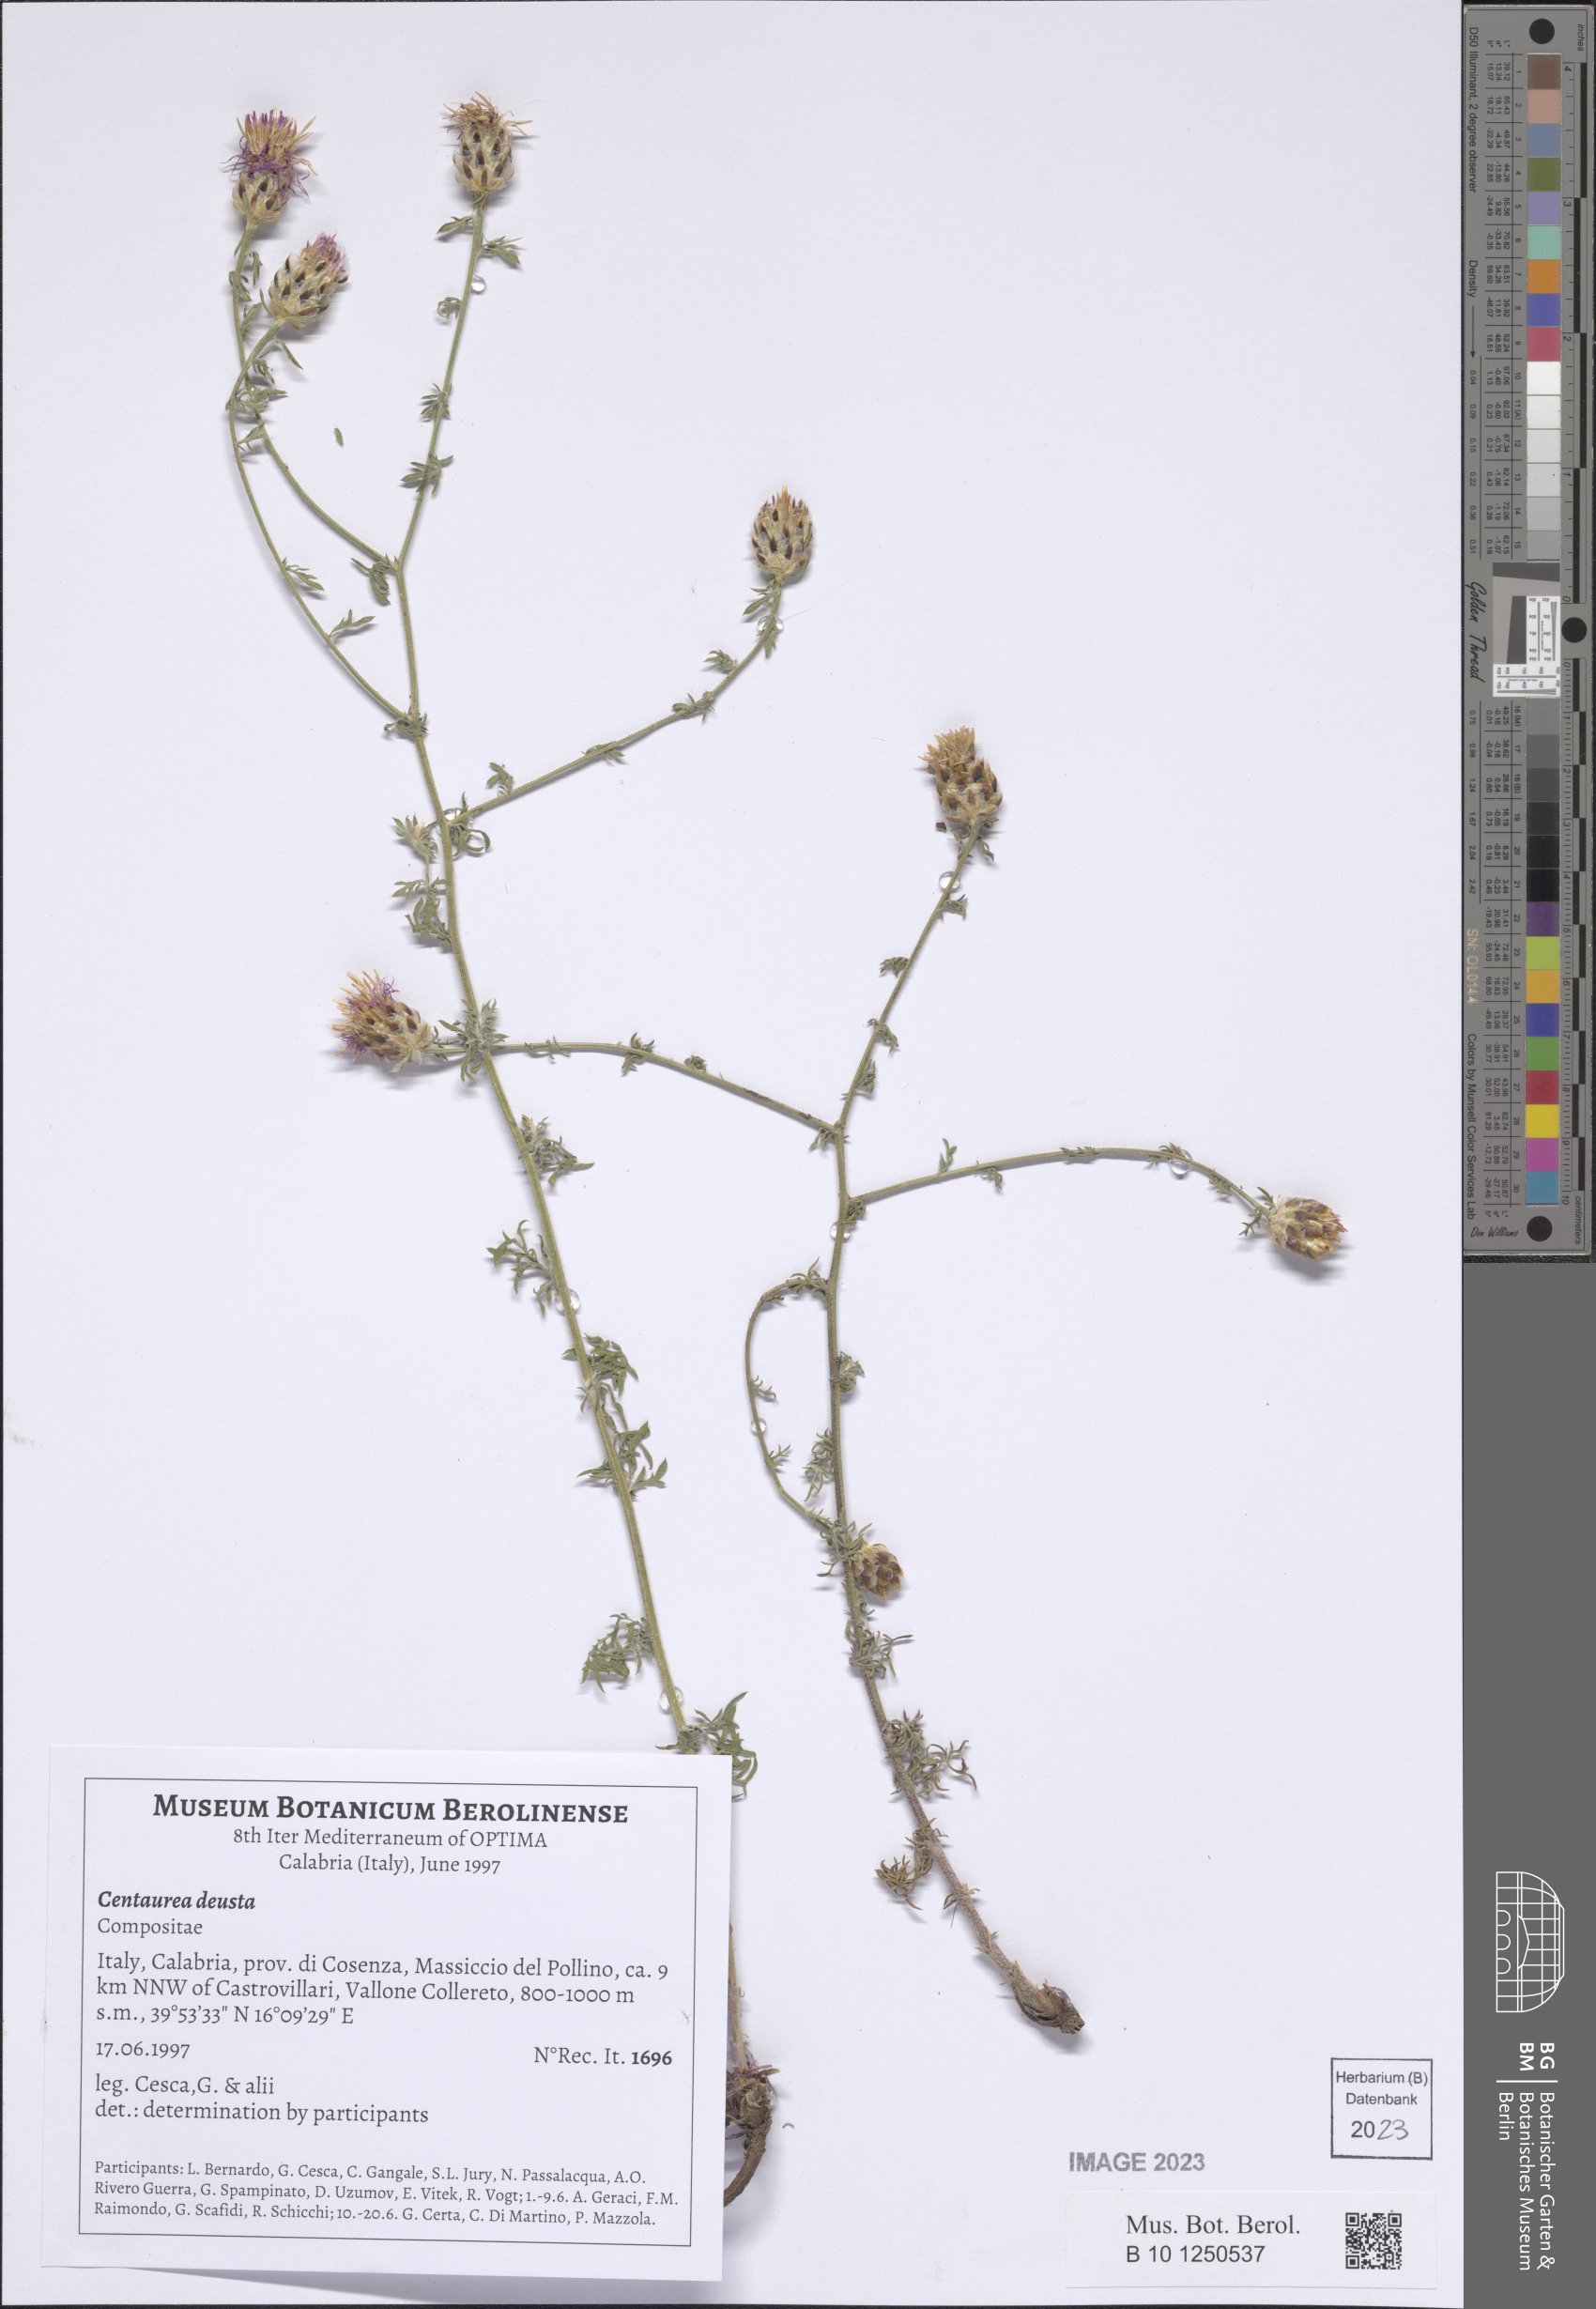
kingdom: Plantae
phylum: Tracheophyta
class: Magnoliopsida
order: Asterales
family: Asteraceae
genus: Centaurea
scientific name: Centaurea deusta
